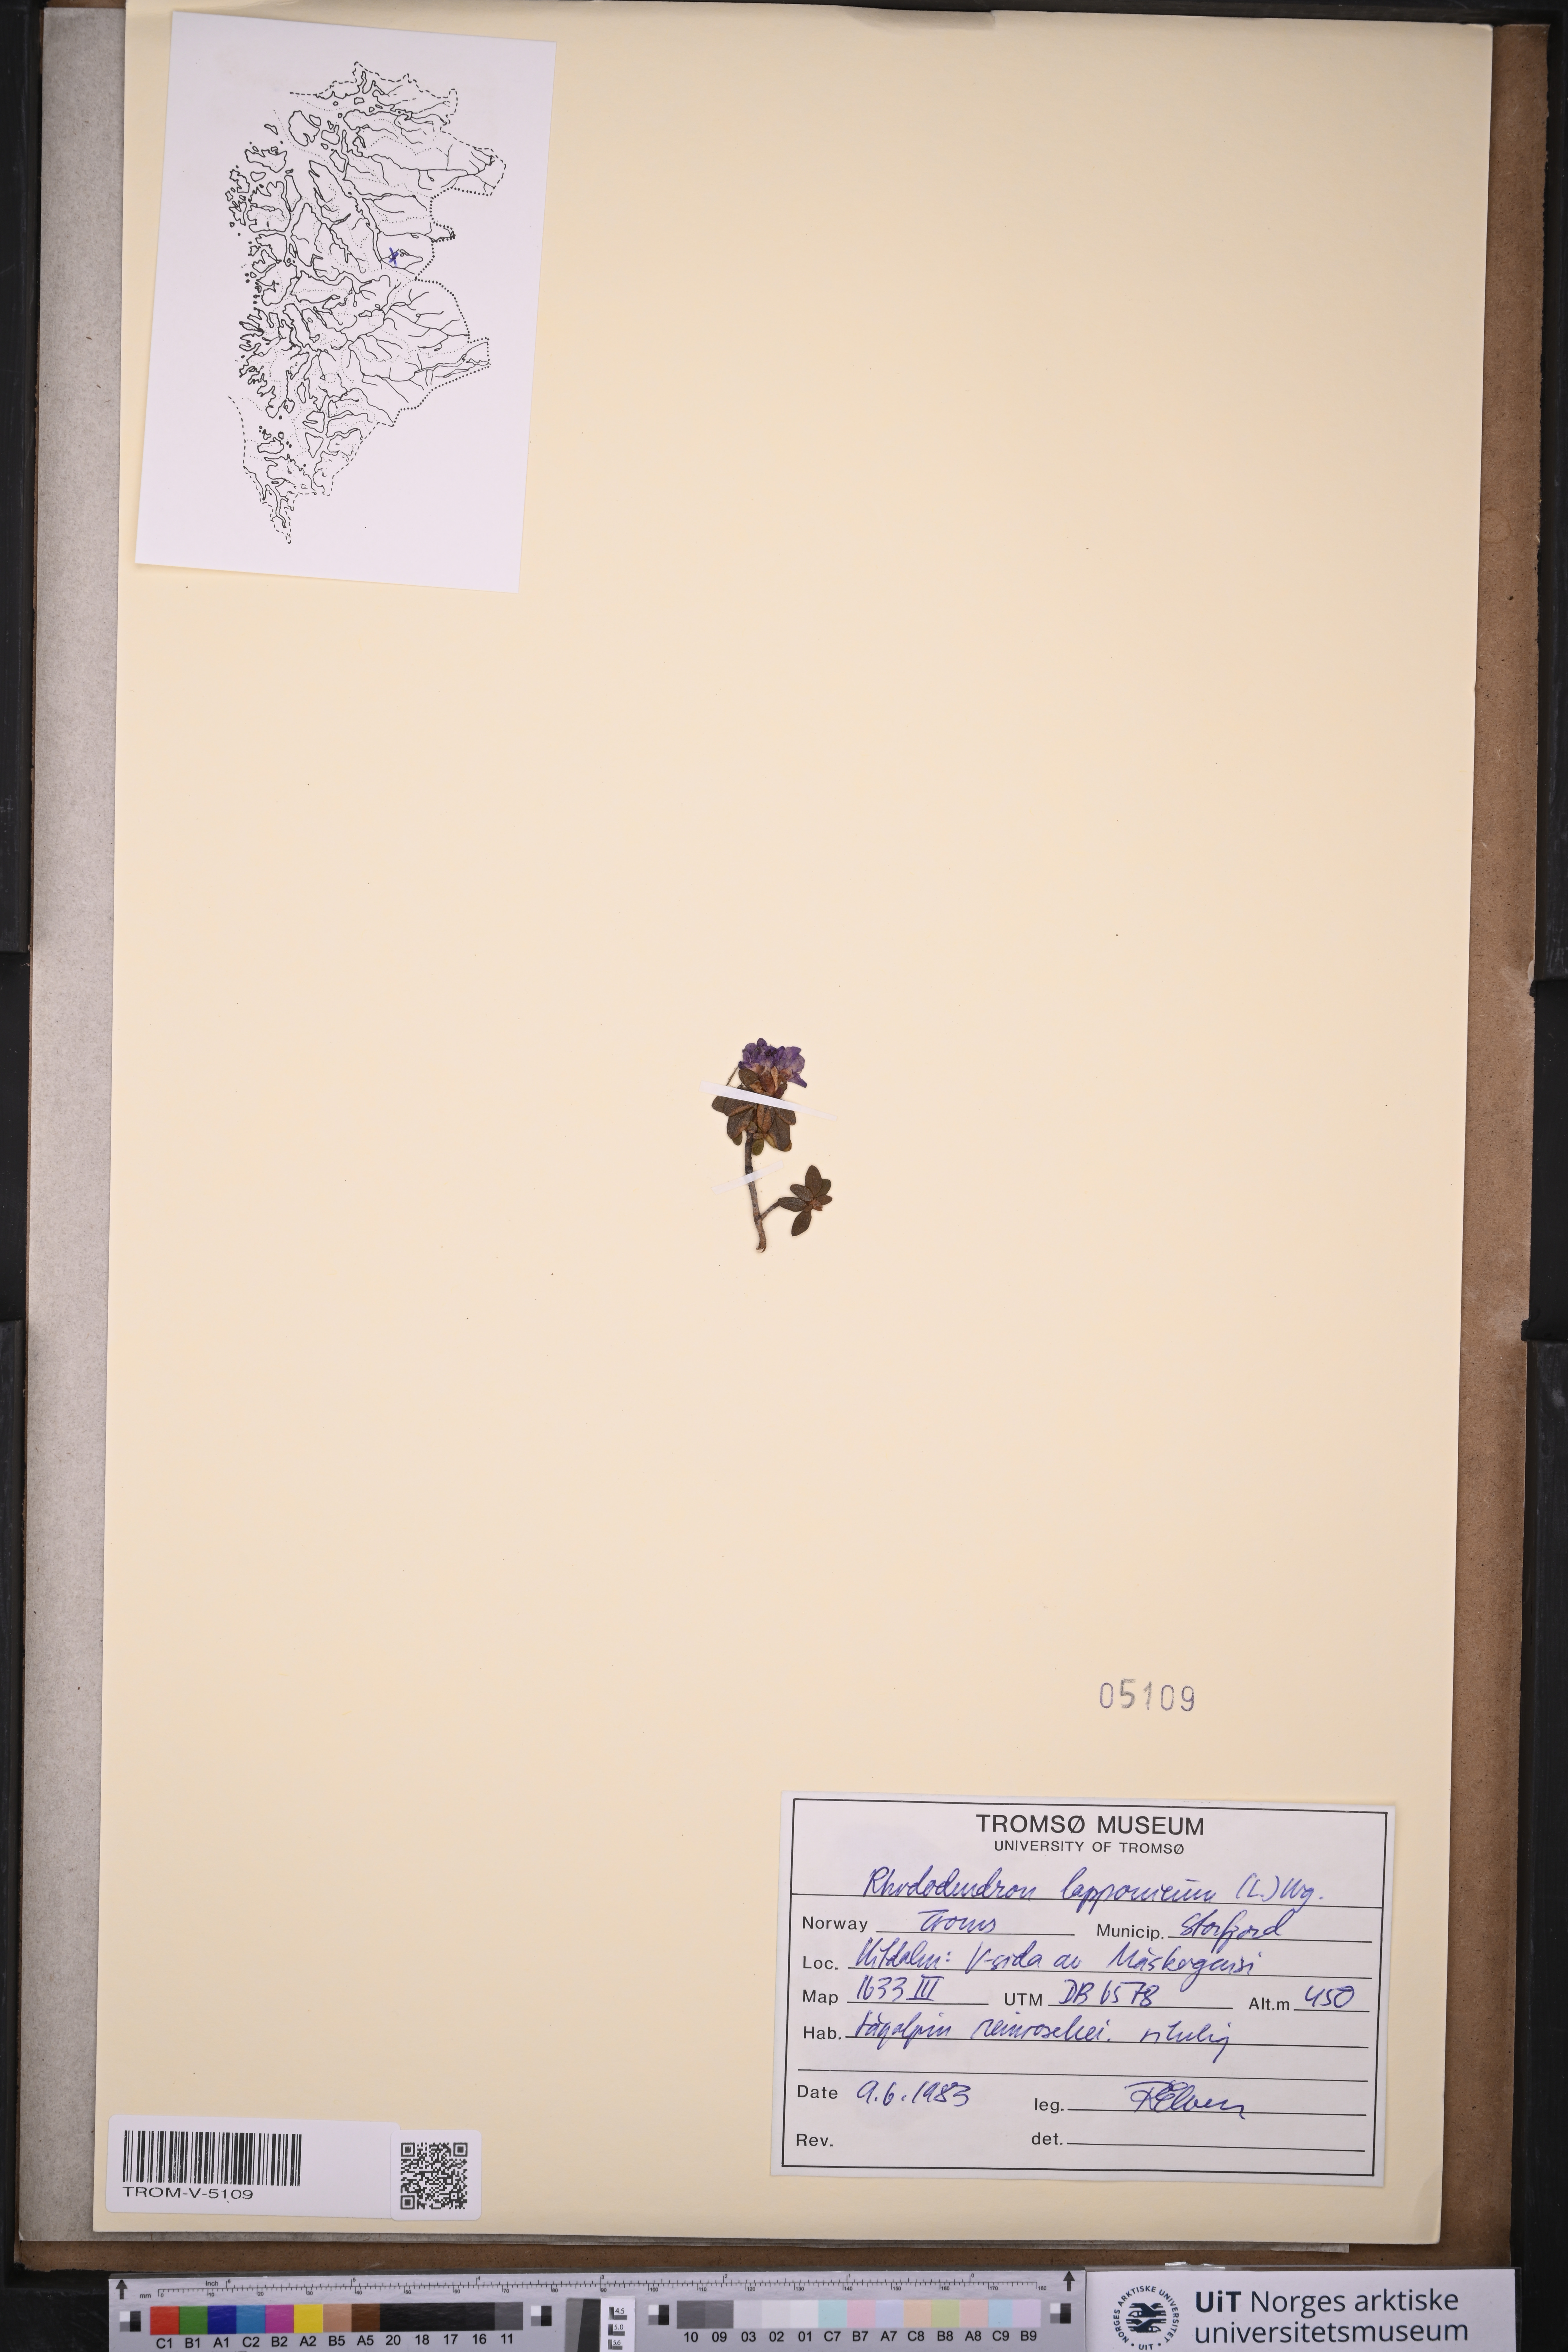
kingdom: Plantae
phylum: Tracheophyta
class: Magnoliopsida
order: Ericales
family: Ericaceae
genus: Rhododendron
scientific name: Rhododendron lapponicum
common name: Lapland rhododendron
